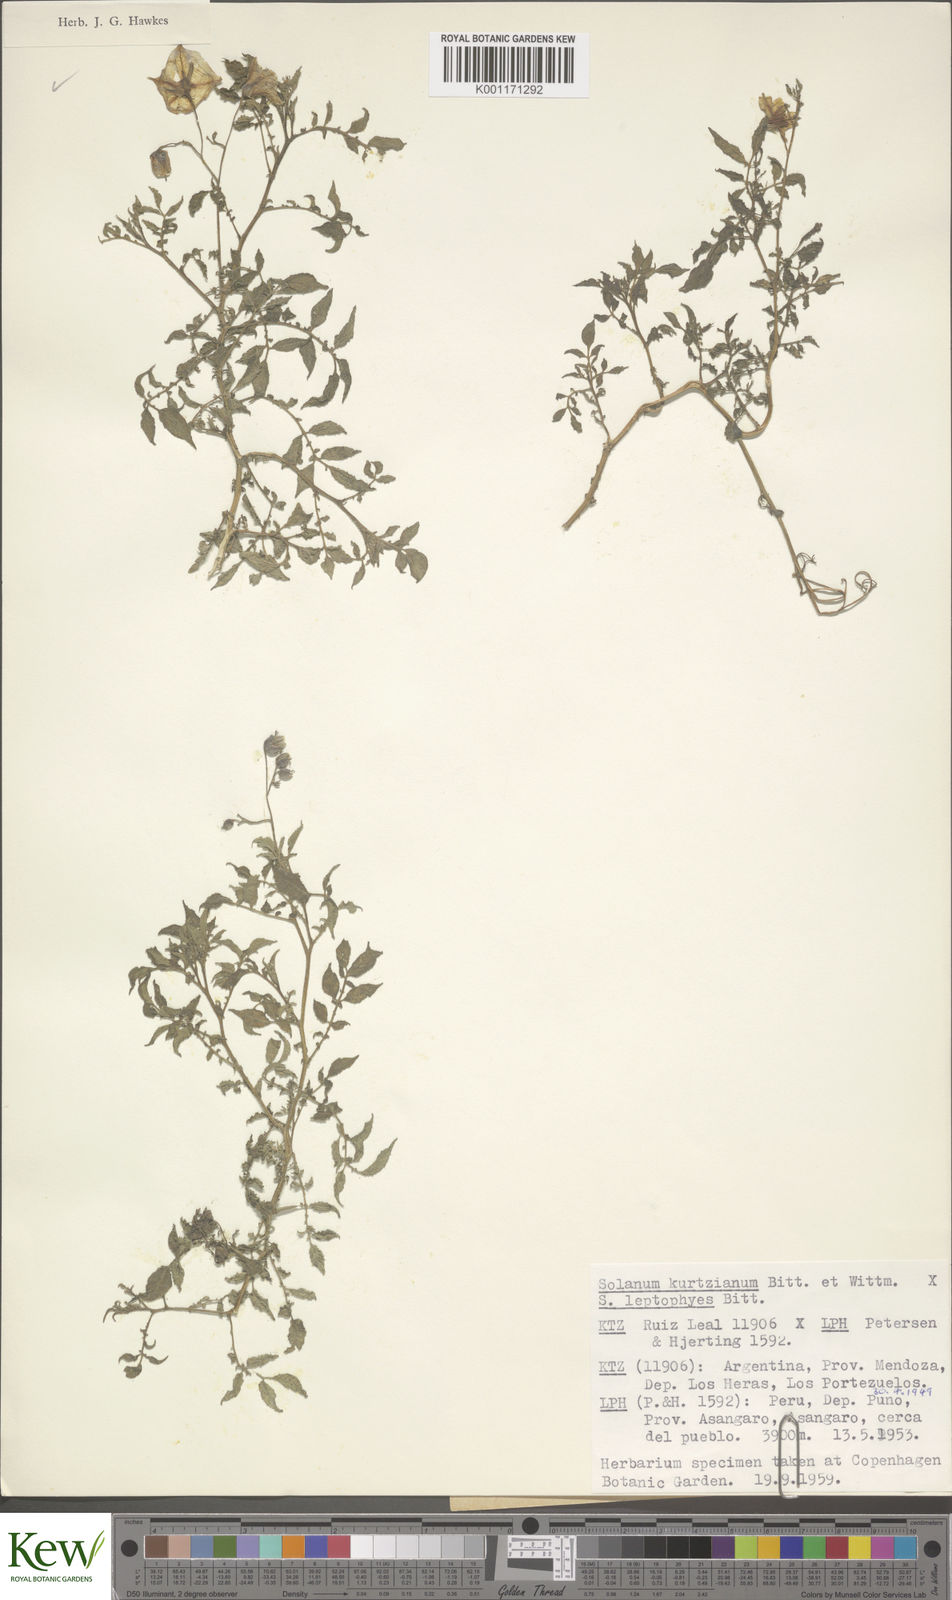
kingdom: Plantae
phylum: Tracheophyta
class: Magnoliopsida
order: Solanales
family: Solanaceae
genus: Solanum
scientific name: Solanum kurtzianum
